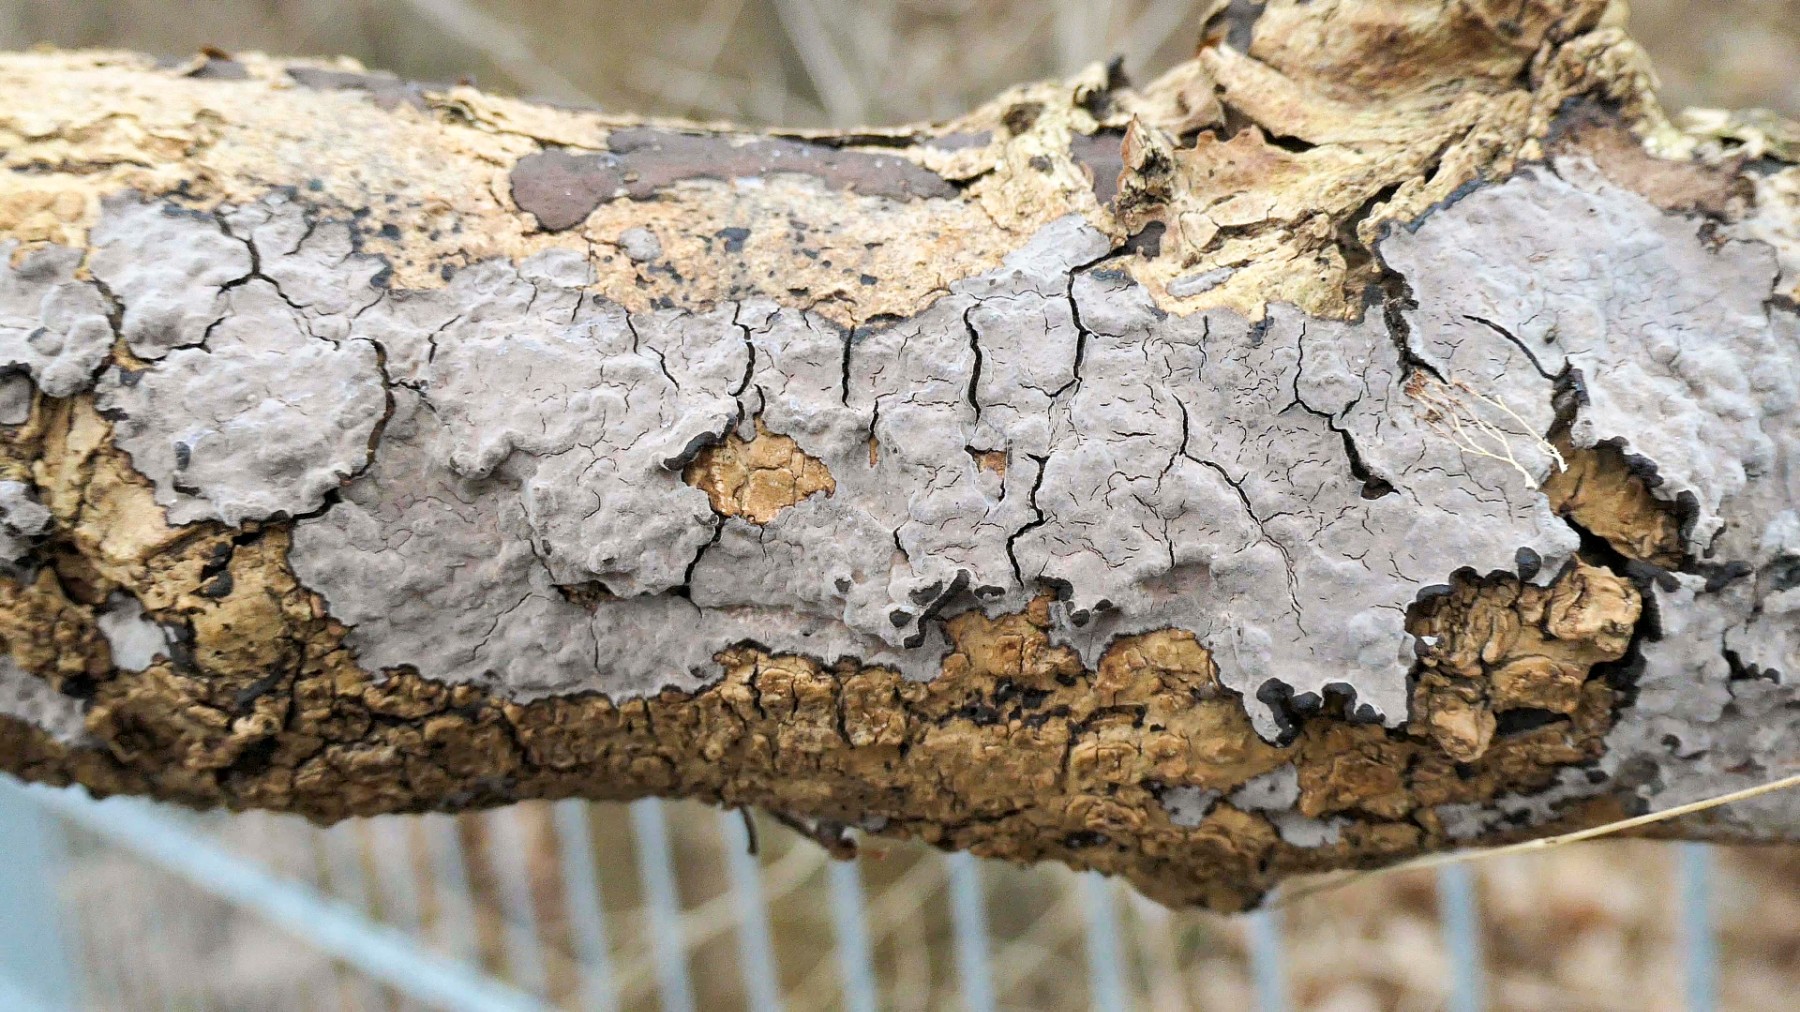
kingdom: Fungi
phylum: Basidiomycota
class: Agaricomycetes
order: Russulales
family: Peniophoraceae
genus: Peniophora
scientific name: Peniophora limitata
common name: mørkrandet voksskind
